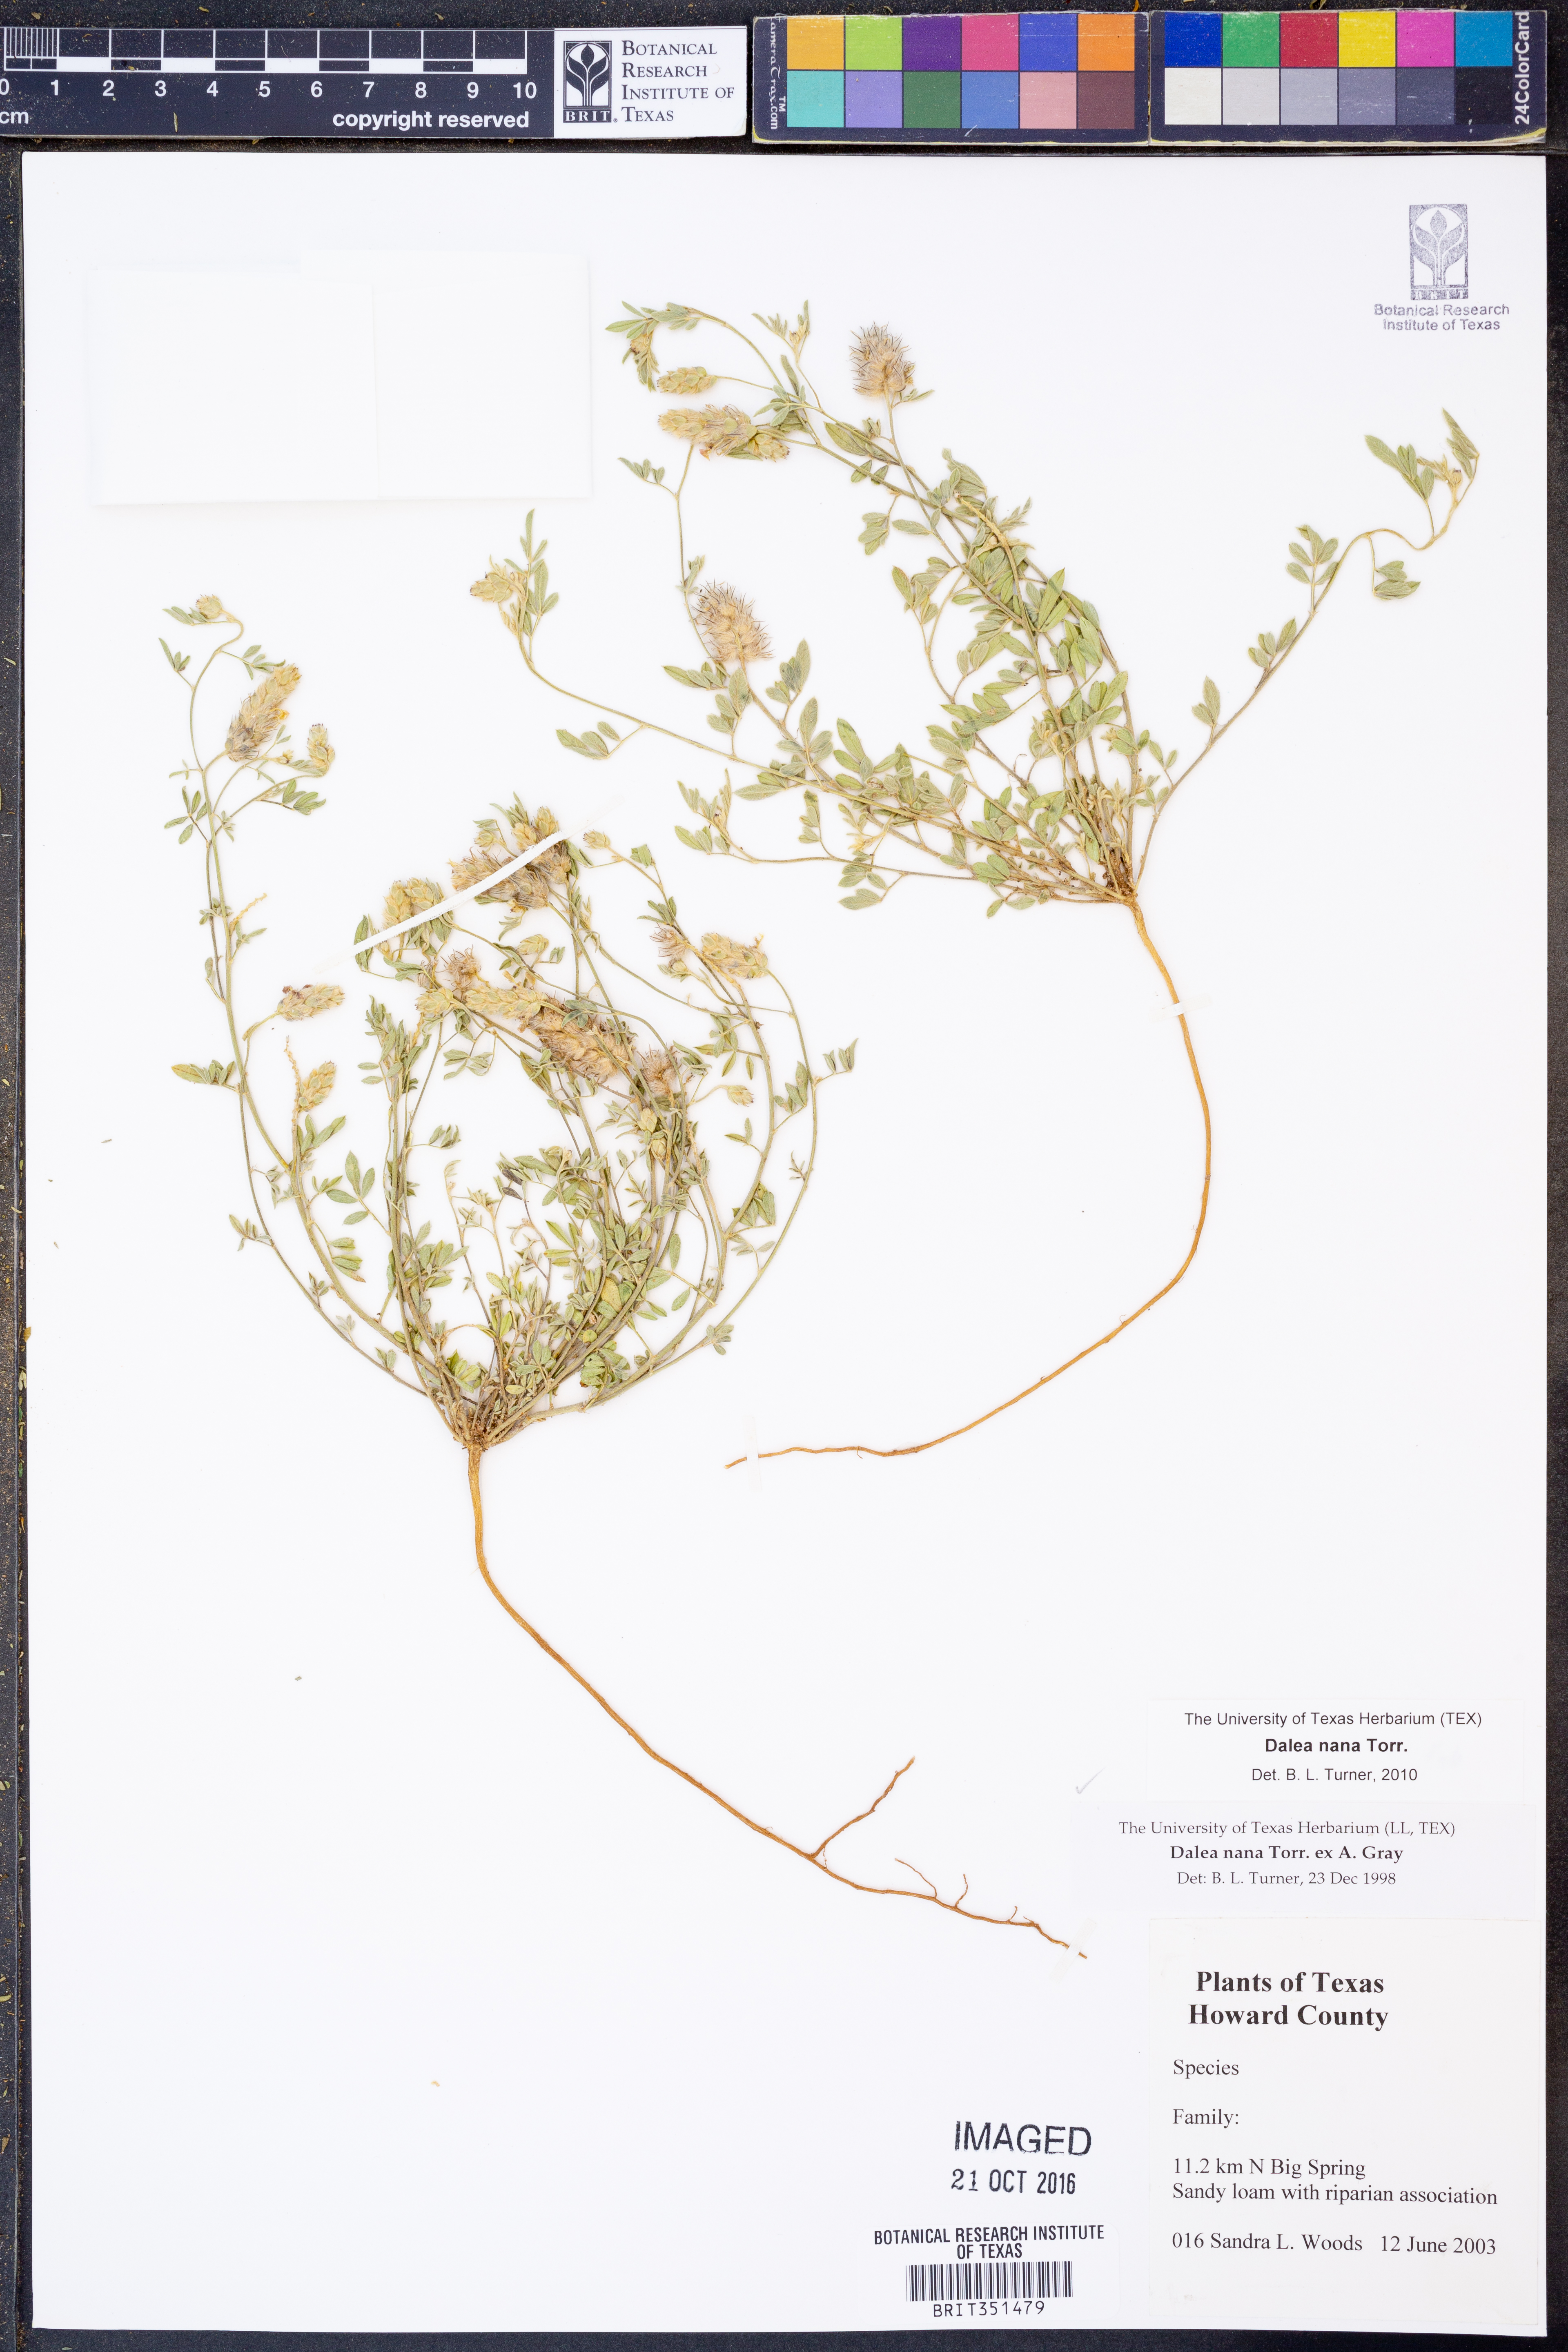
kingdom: Plantae
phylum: Tracheophyta
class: Magnoliopsida
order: Fabales
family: Fabaceae
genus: Dalea
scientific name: Dalea nana
